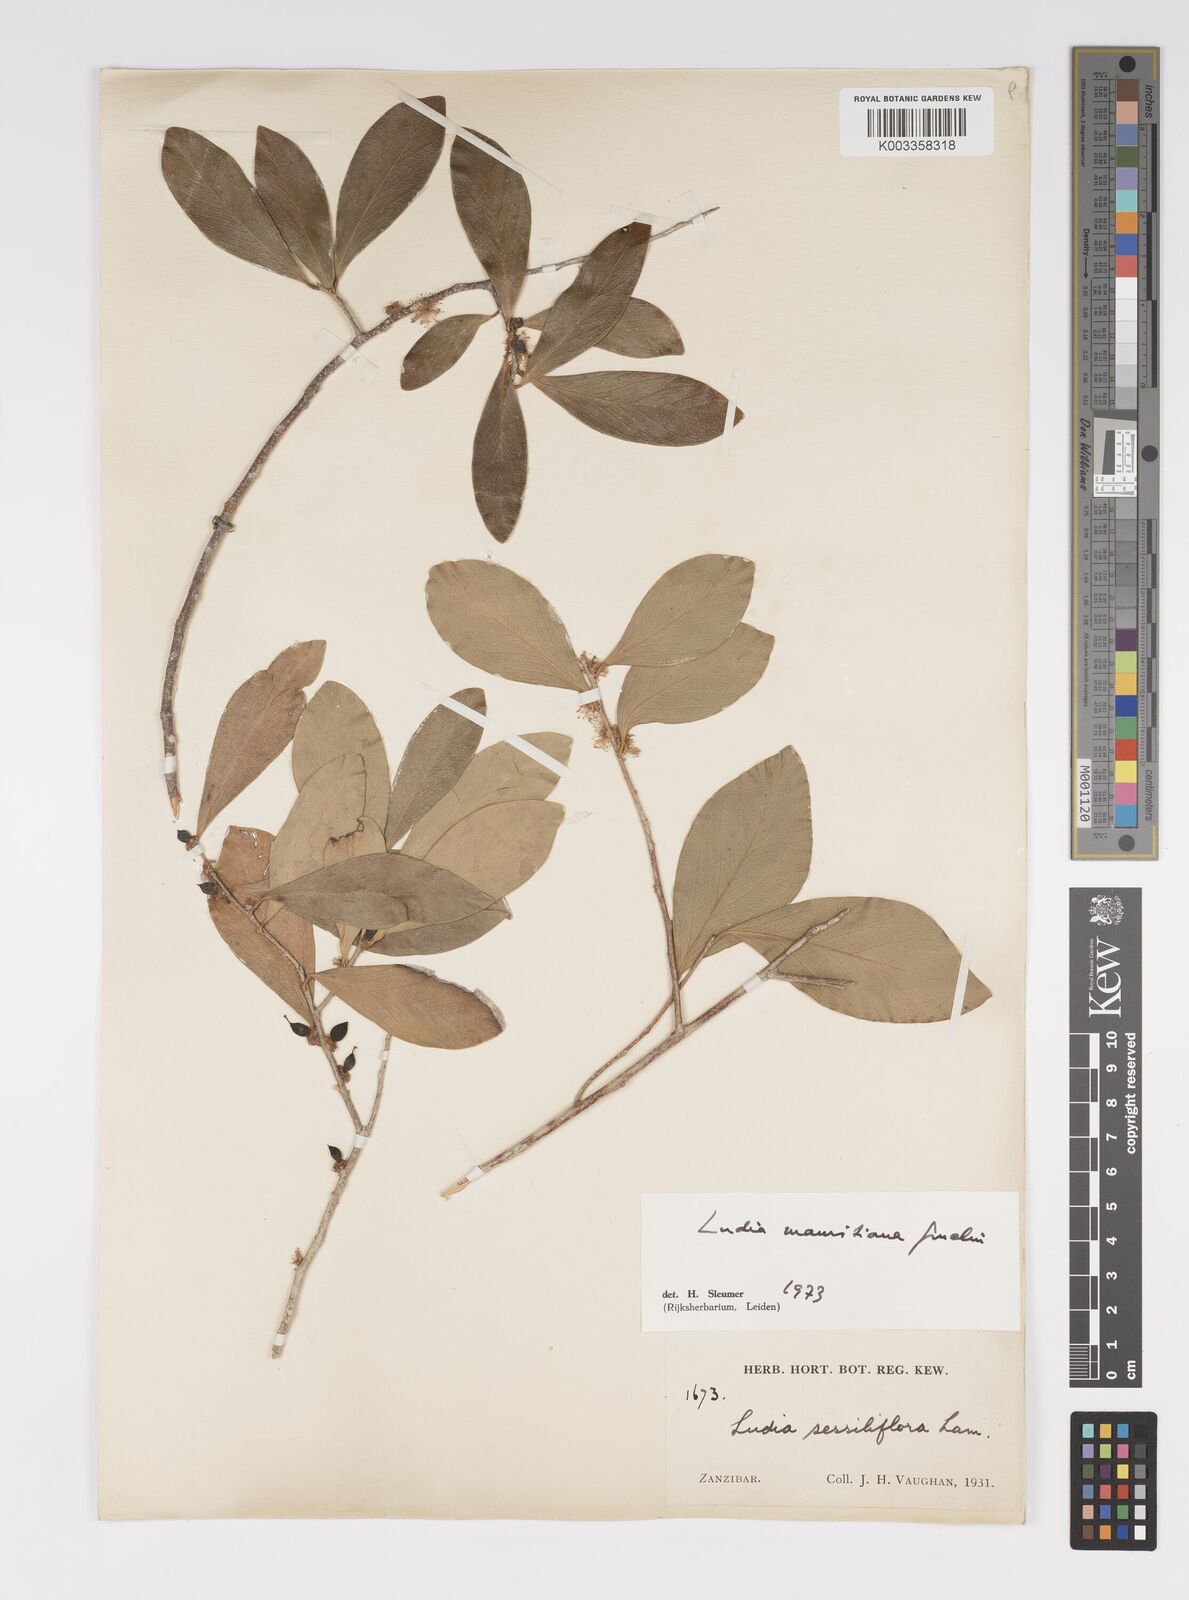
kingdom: Plantae
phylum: Tracheophyta
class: Magnoliopsida
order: Malpighiales
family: Salicaceae
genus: Ludia
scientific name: Ludia mauritiana
